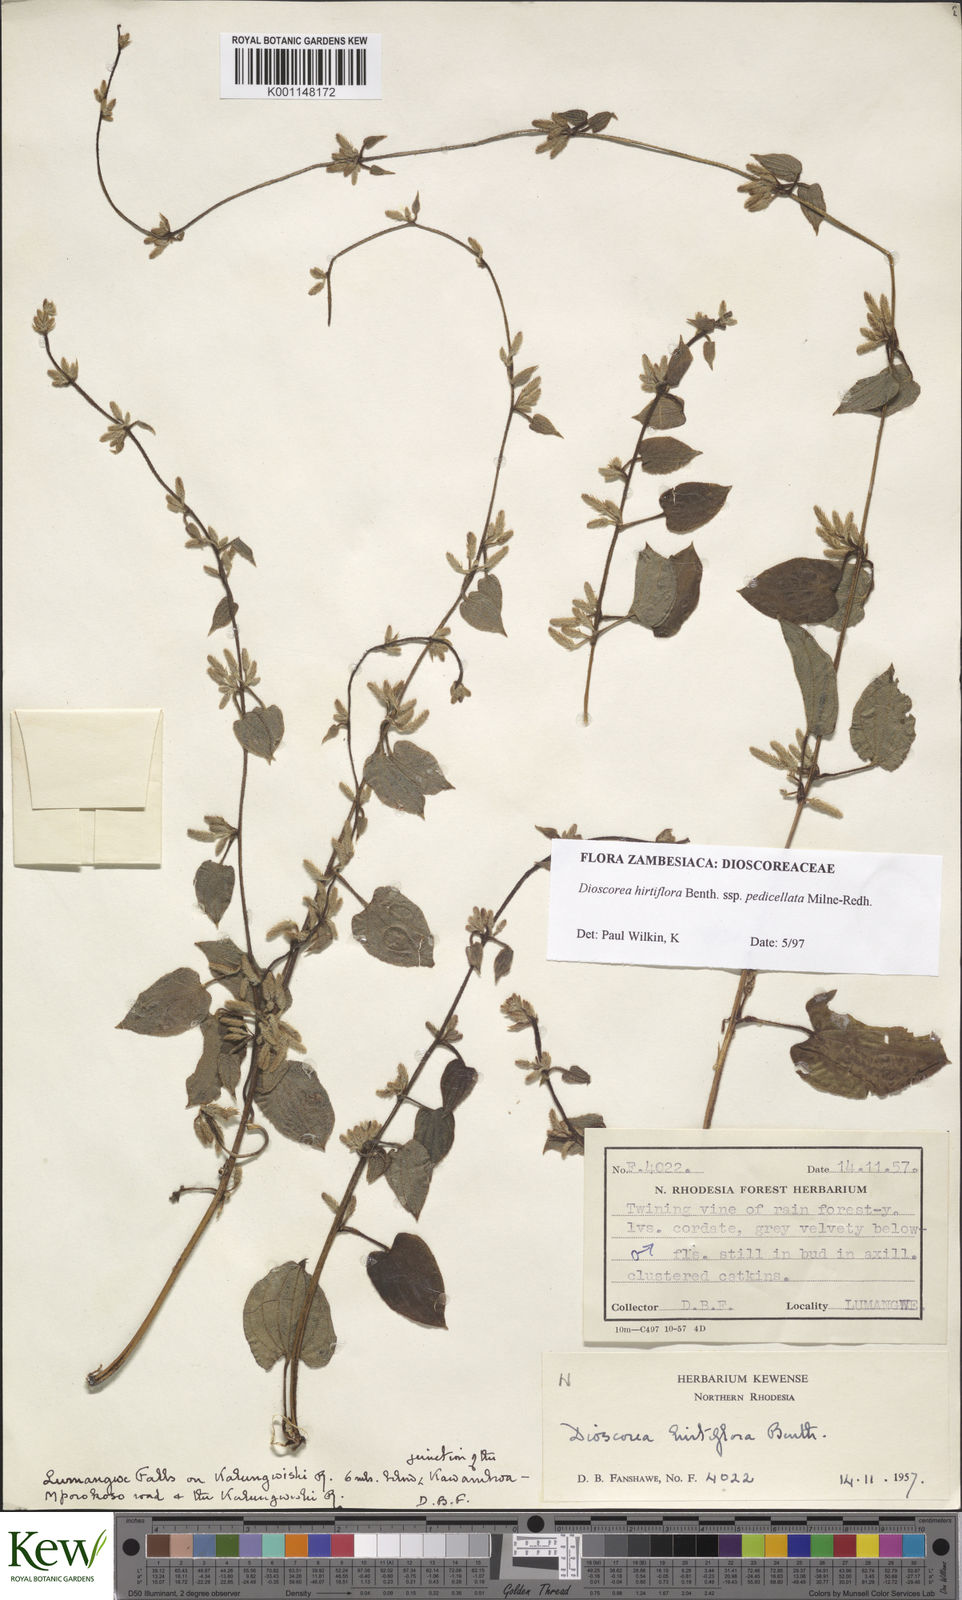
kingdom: Plantae
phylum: Tracheophyta
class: Liliopsida
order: Dioscoreales
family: Dioscoreaceae
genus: Dioscorea
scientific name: Dioscorea hirtiflora
